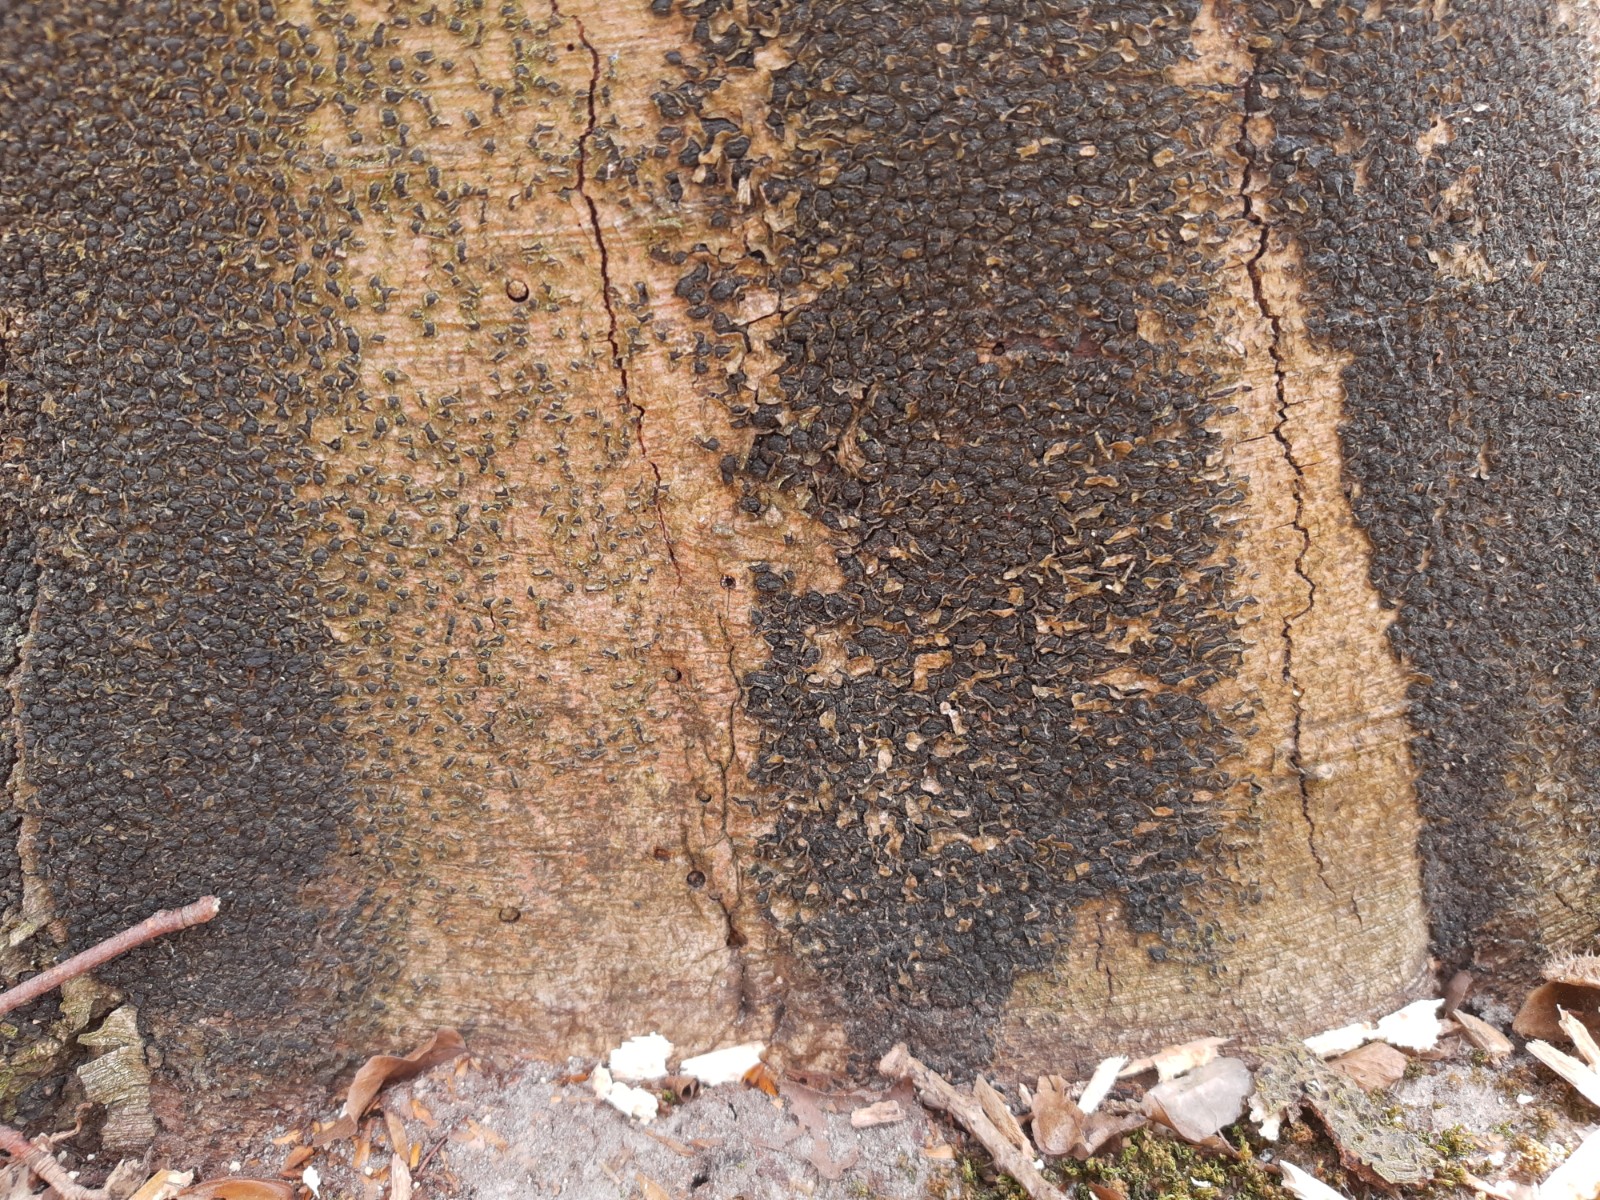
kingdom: Fungi
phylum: Ascomycota
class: Sordariomycetes
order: Xylariales
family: Melogrammataceae
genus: Melogramma
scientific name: Melogramma spiniferum
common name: bøgefod-kulhals
